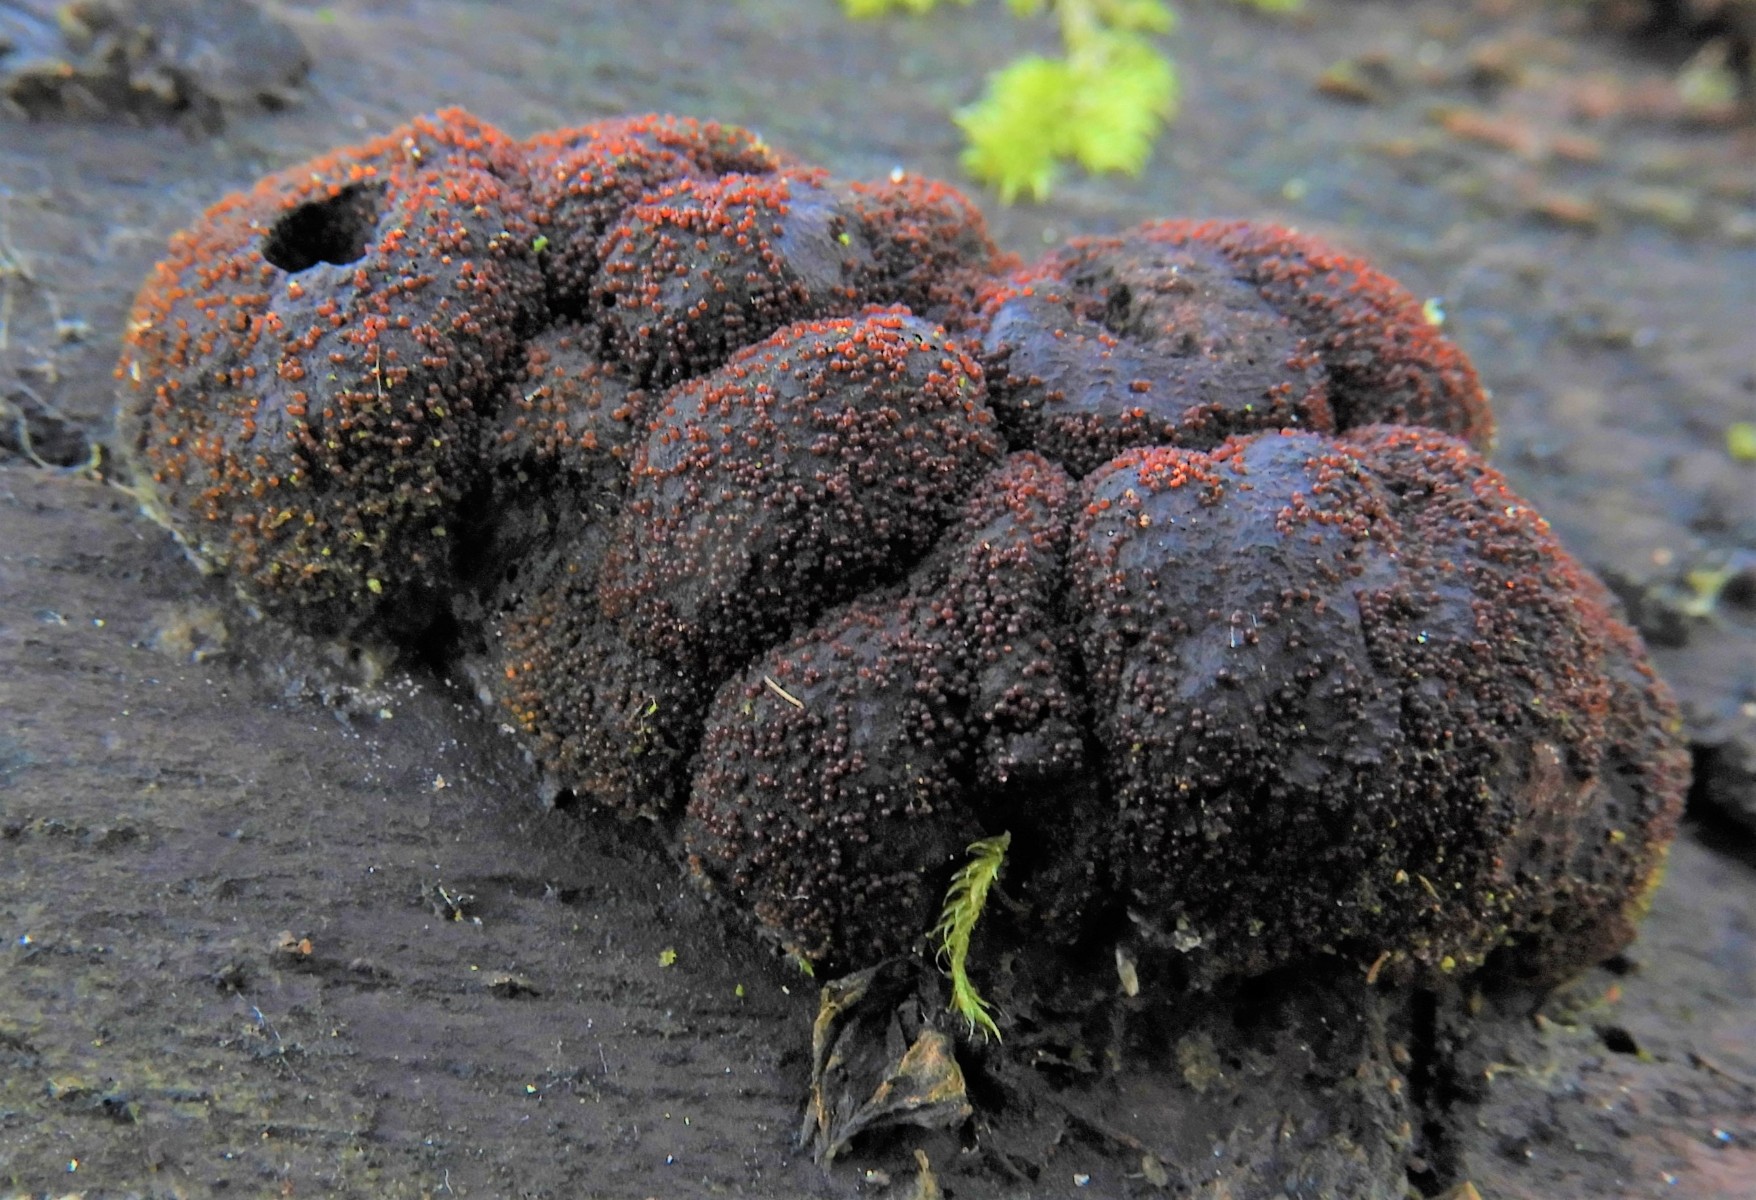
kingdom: Fungi
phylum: Ascomycota
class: Sordariomycetes
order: Hypocreales
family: Nectriaceae
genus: Cosmospora
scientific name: Cosmospora arxii
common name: kuljordbær-cinnobersvamp
